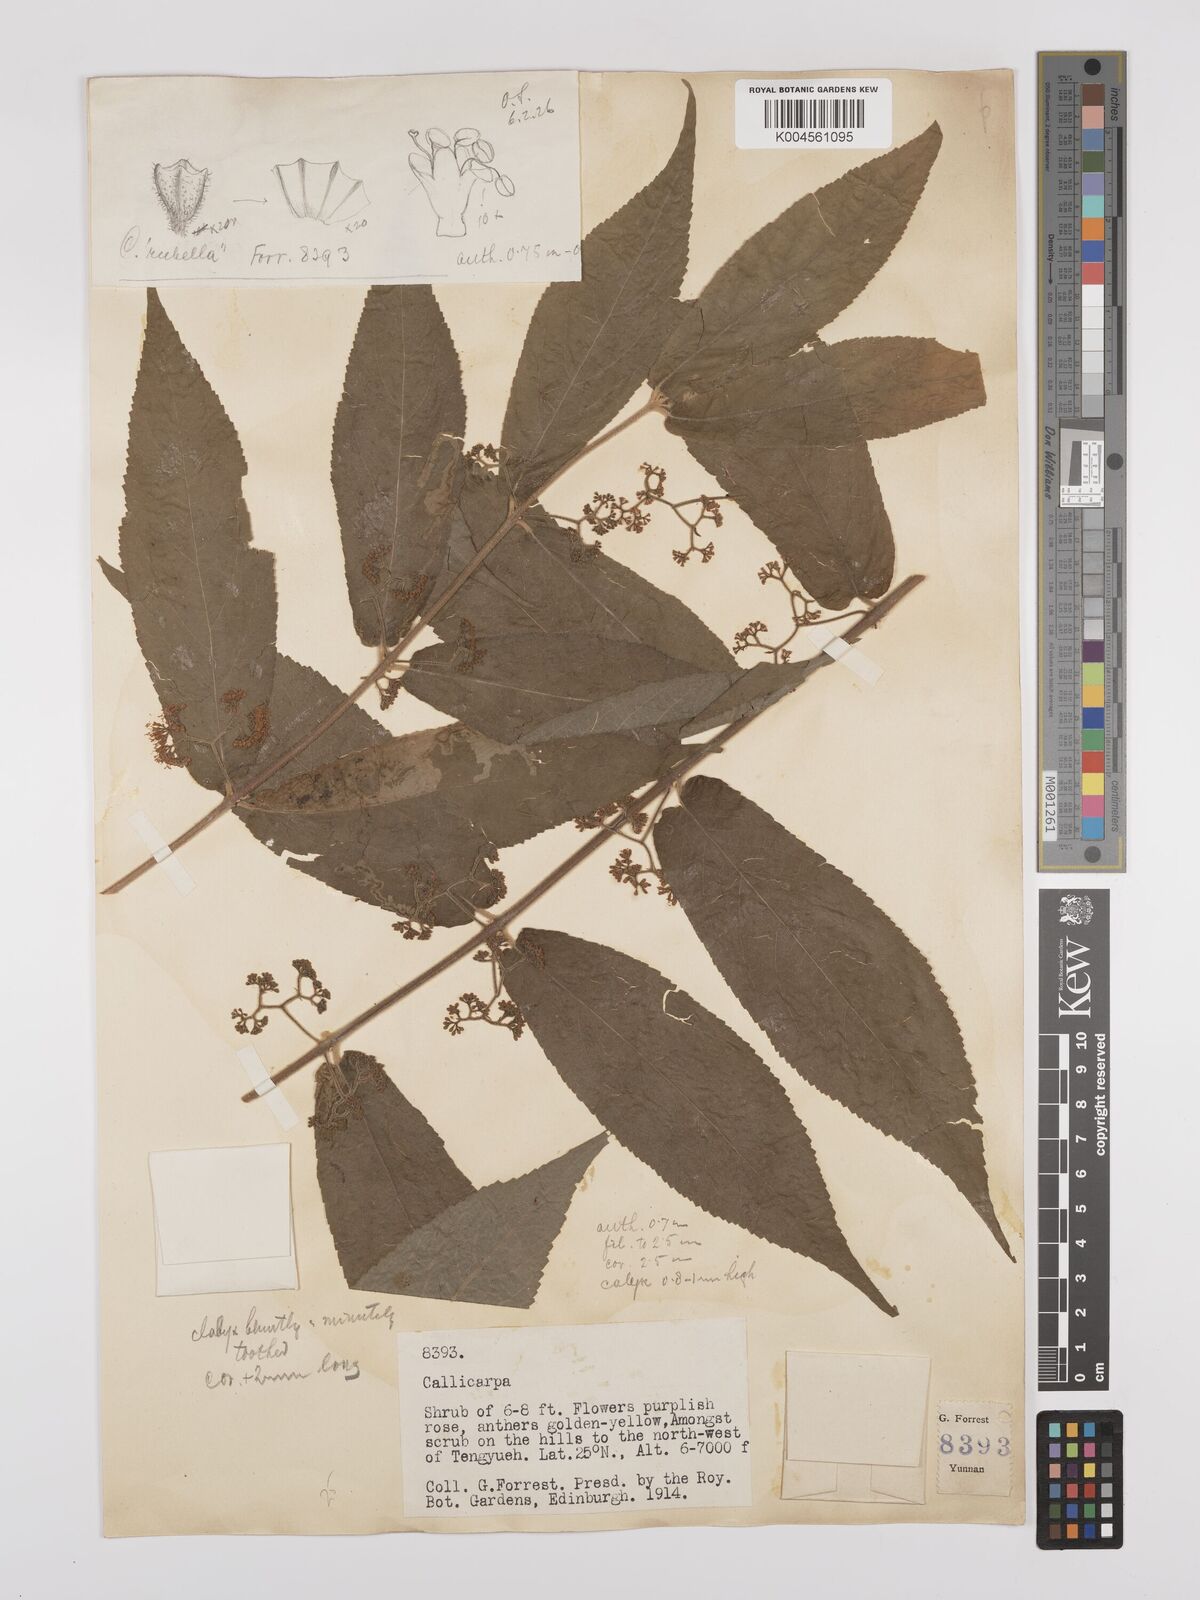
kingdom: Plantae
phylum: Tracheophyta
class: Magnoliopsida
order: Lamiales
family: Lamiaceae
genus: Callicarpa
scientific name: Callicarpa rubella
